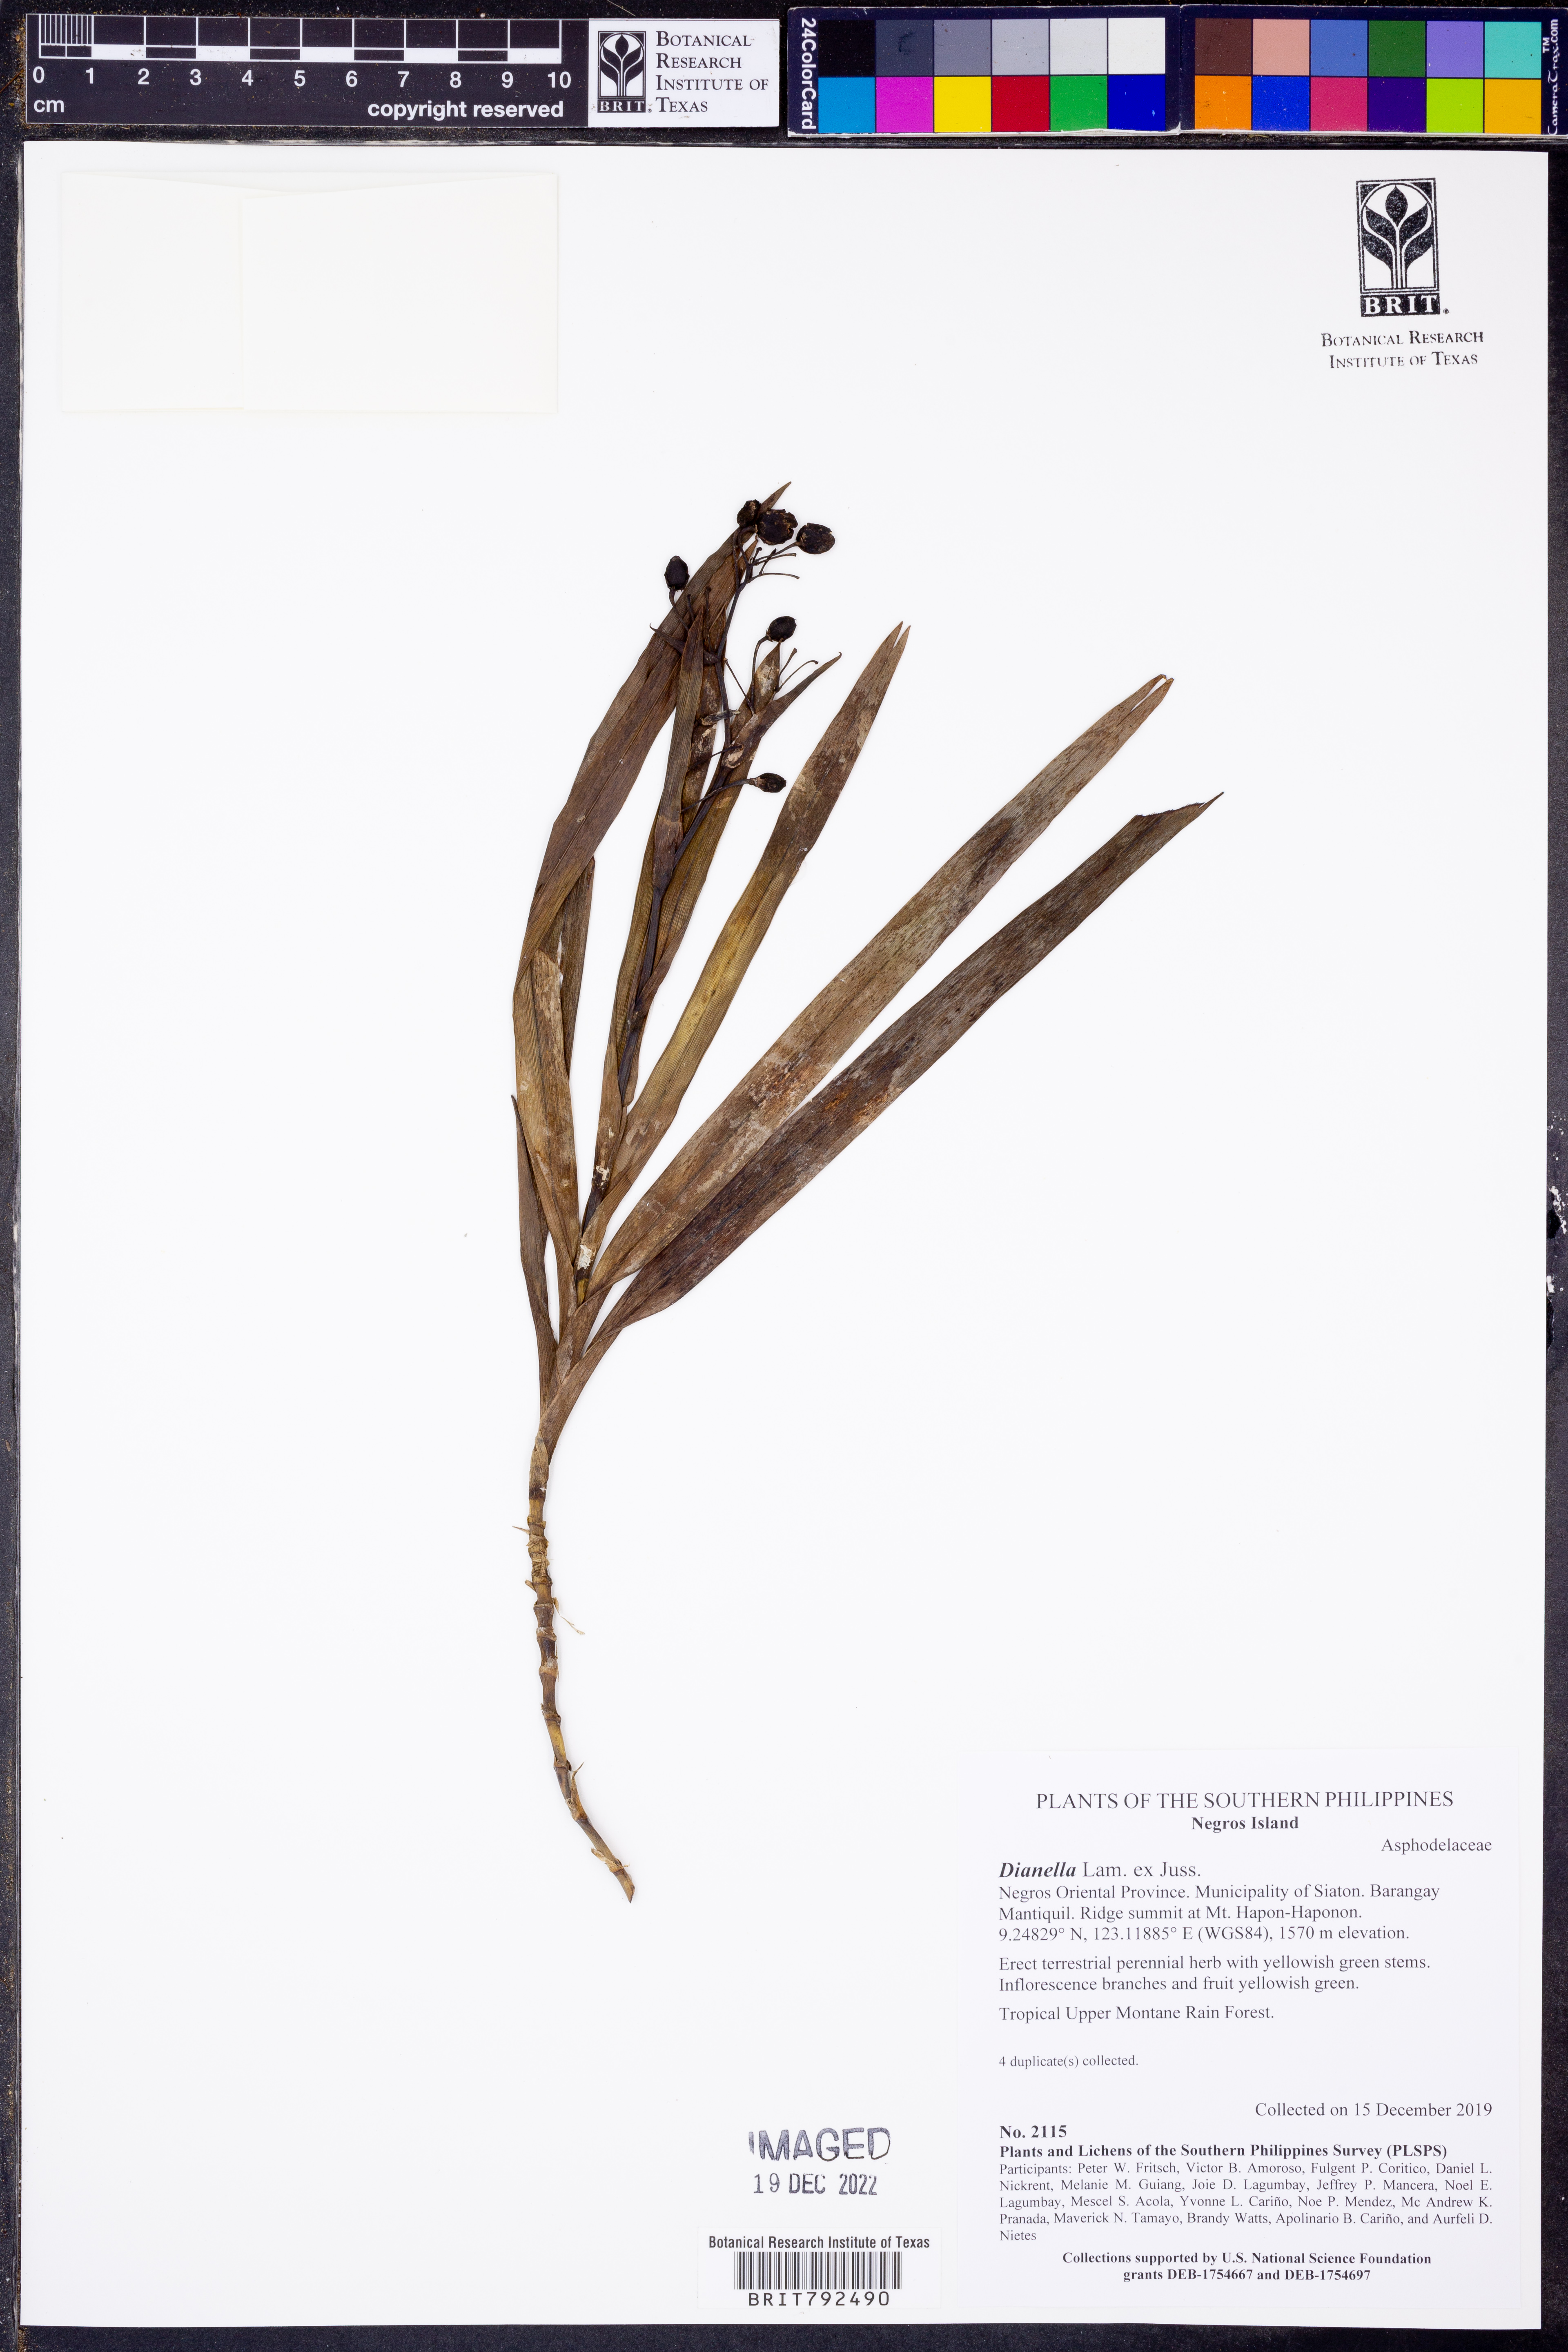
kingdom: Plantae
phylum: Tracheophyta
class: Liliopsida
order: Asparagales
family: Asphodelaceae
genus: Dianella
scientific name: Dianella
